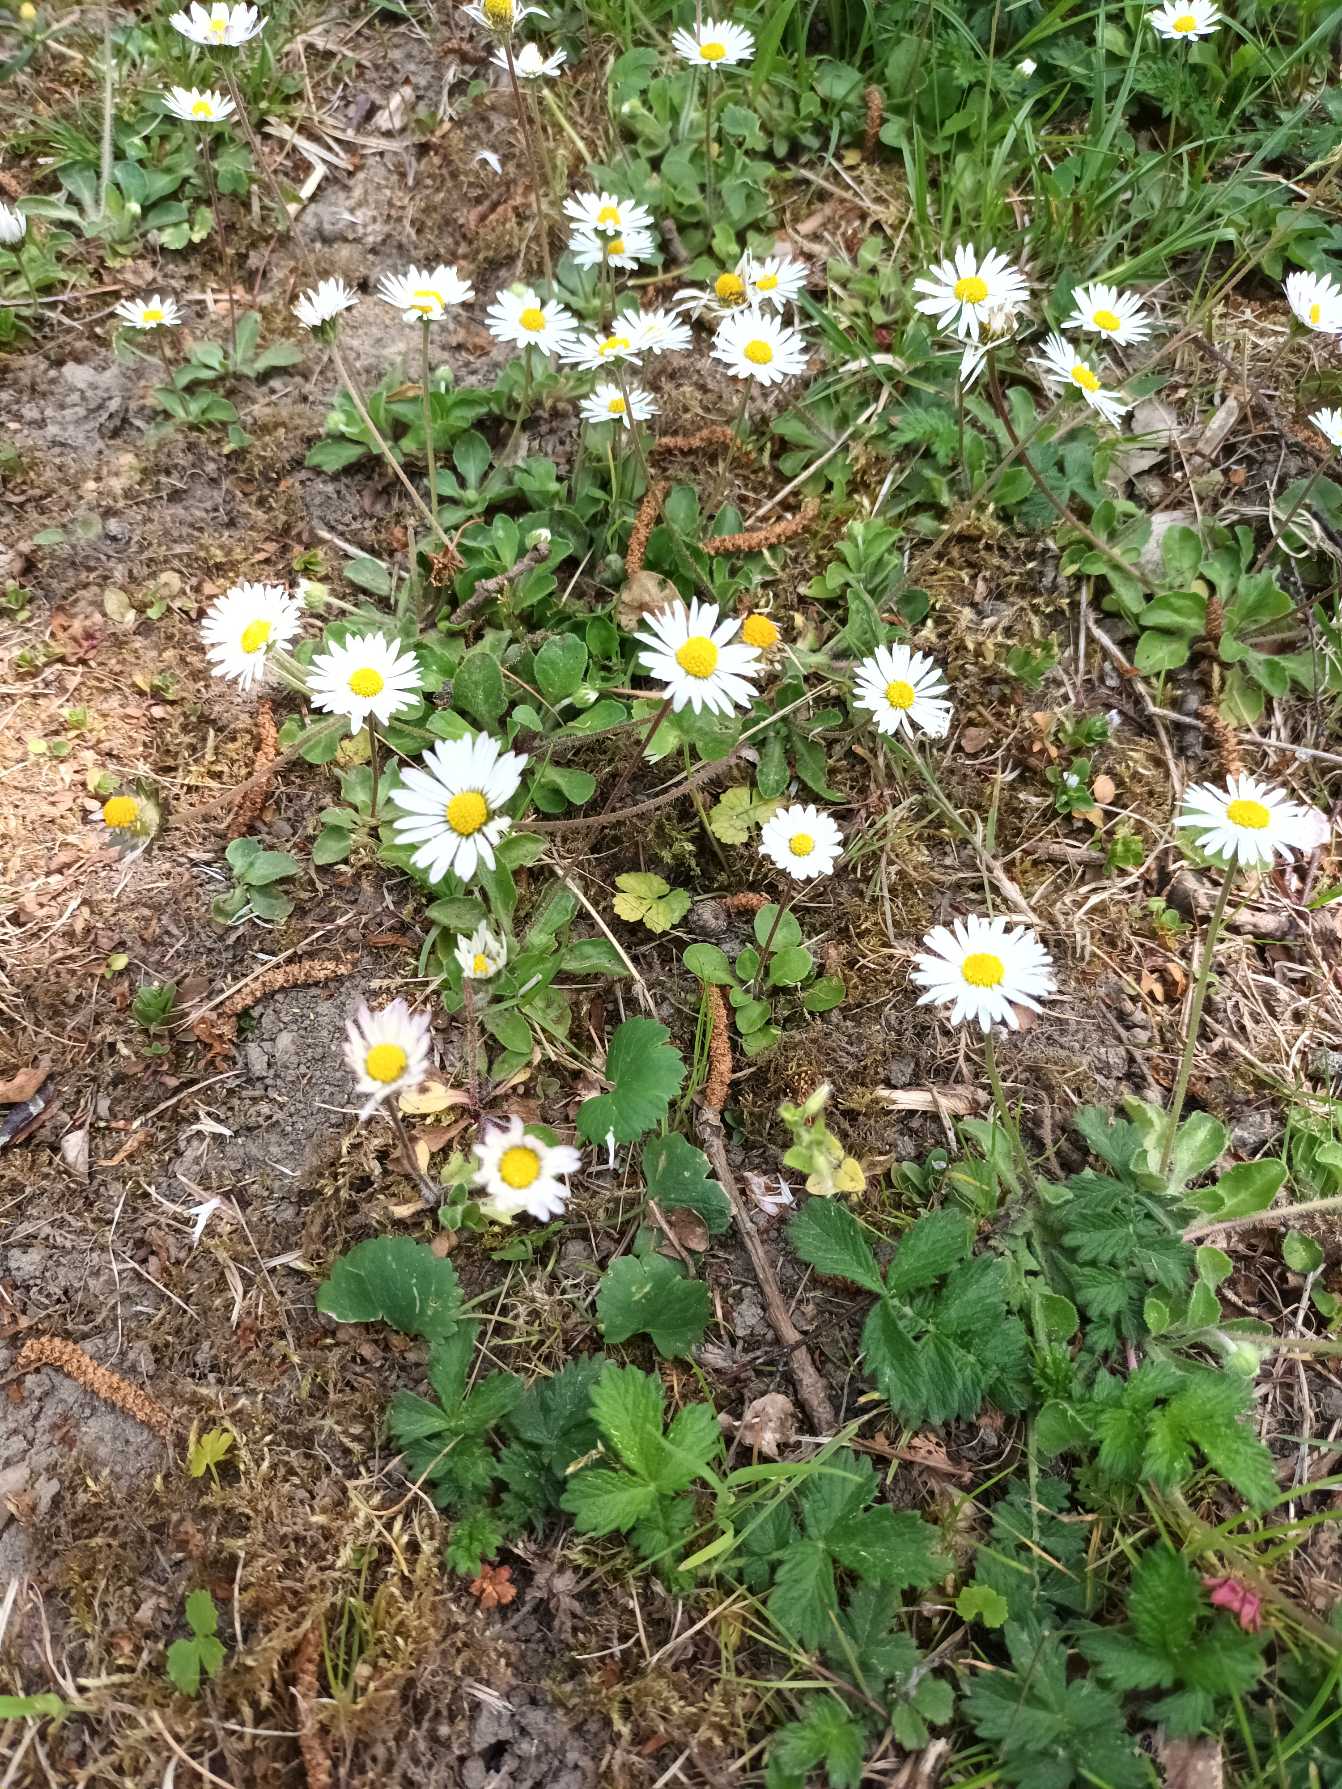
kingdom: Plantae
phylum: Tracheophyta
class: Magnoliopsida
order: Asterales
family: Asteraceae
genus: Bellis
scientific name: Bellis perennis
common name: Tusindfryd
